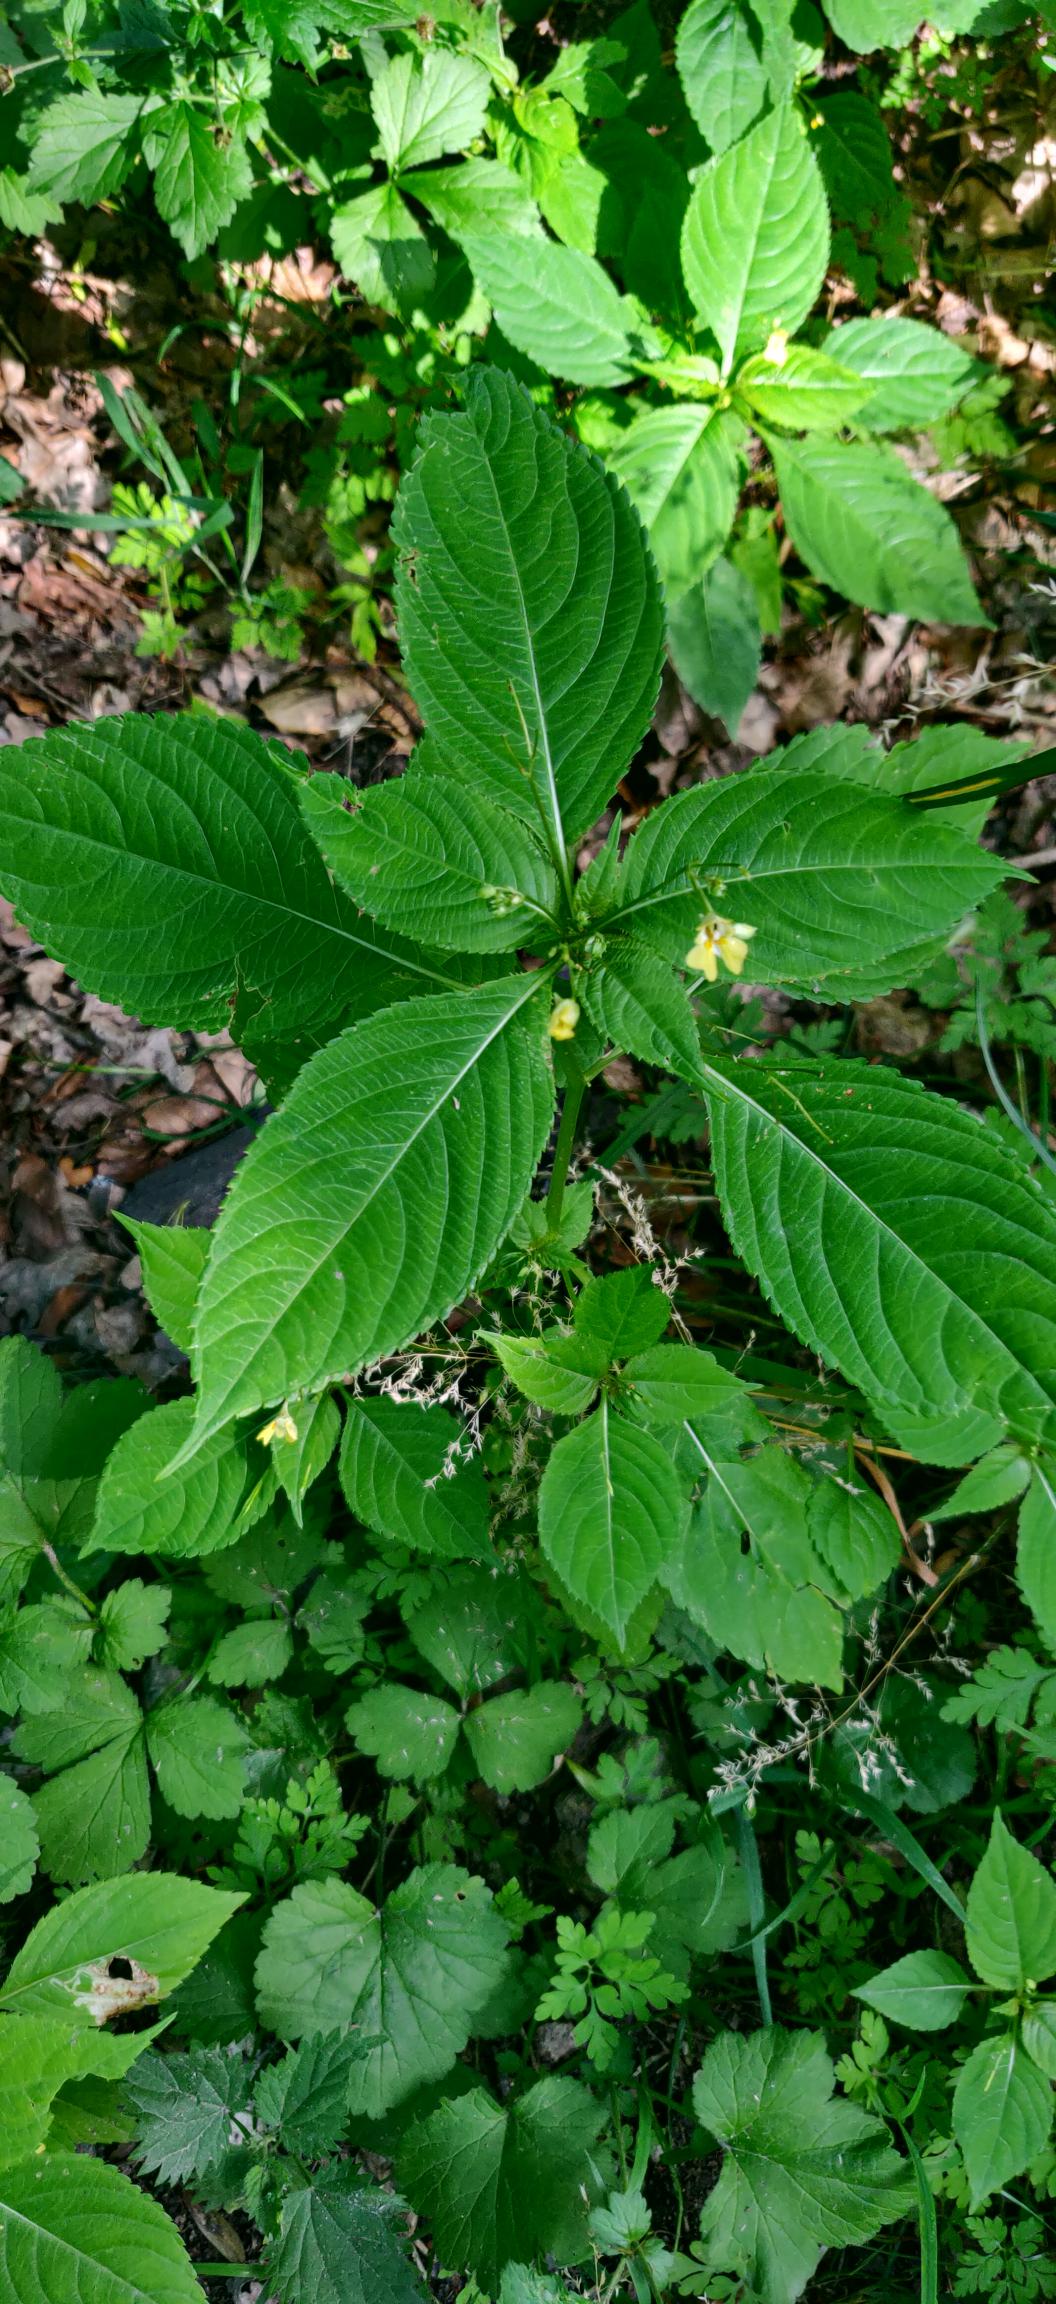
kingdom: Plantae
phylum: Tracheophyta
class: Magnoliopsida
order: Ericales
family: Balsaminaceae
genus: Impatiens
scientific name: Impatiens parviflora
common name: Småblomstret balsamin
